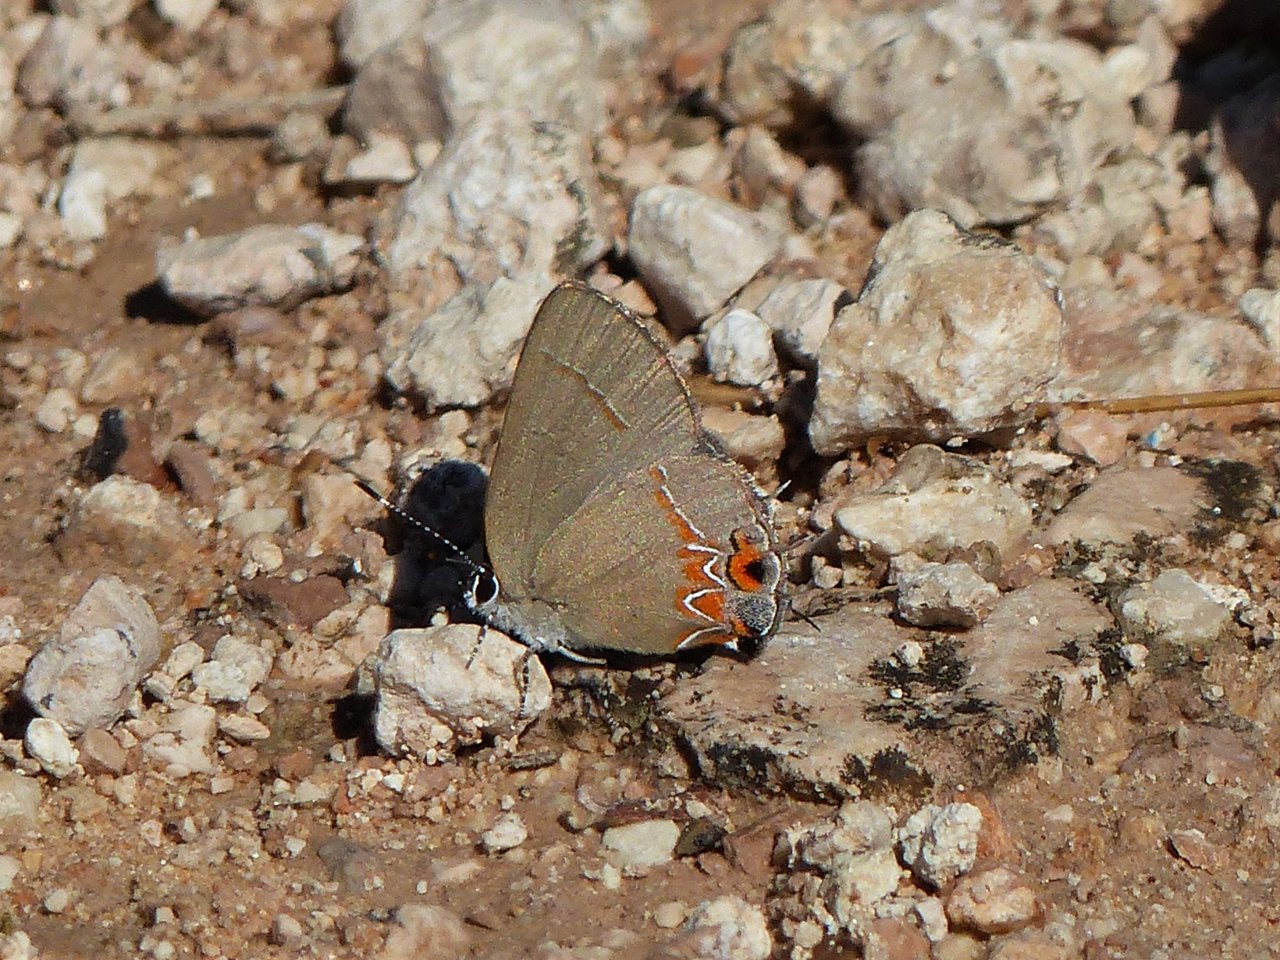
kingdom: Animalia
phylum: Arthropoda
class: Insecta
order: Lepidoptera
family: Lycaenidae
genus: Calycopis
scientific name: Calycopis isobeon
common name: Dusky-blue Groundstreak
